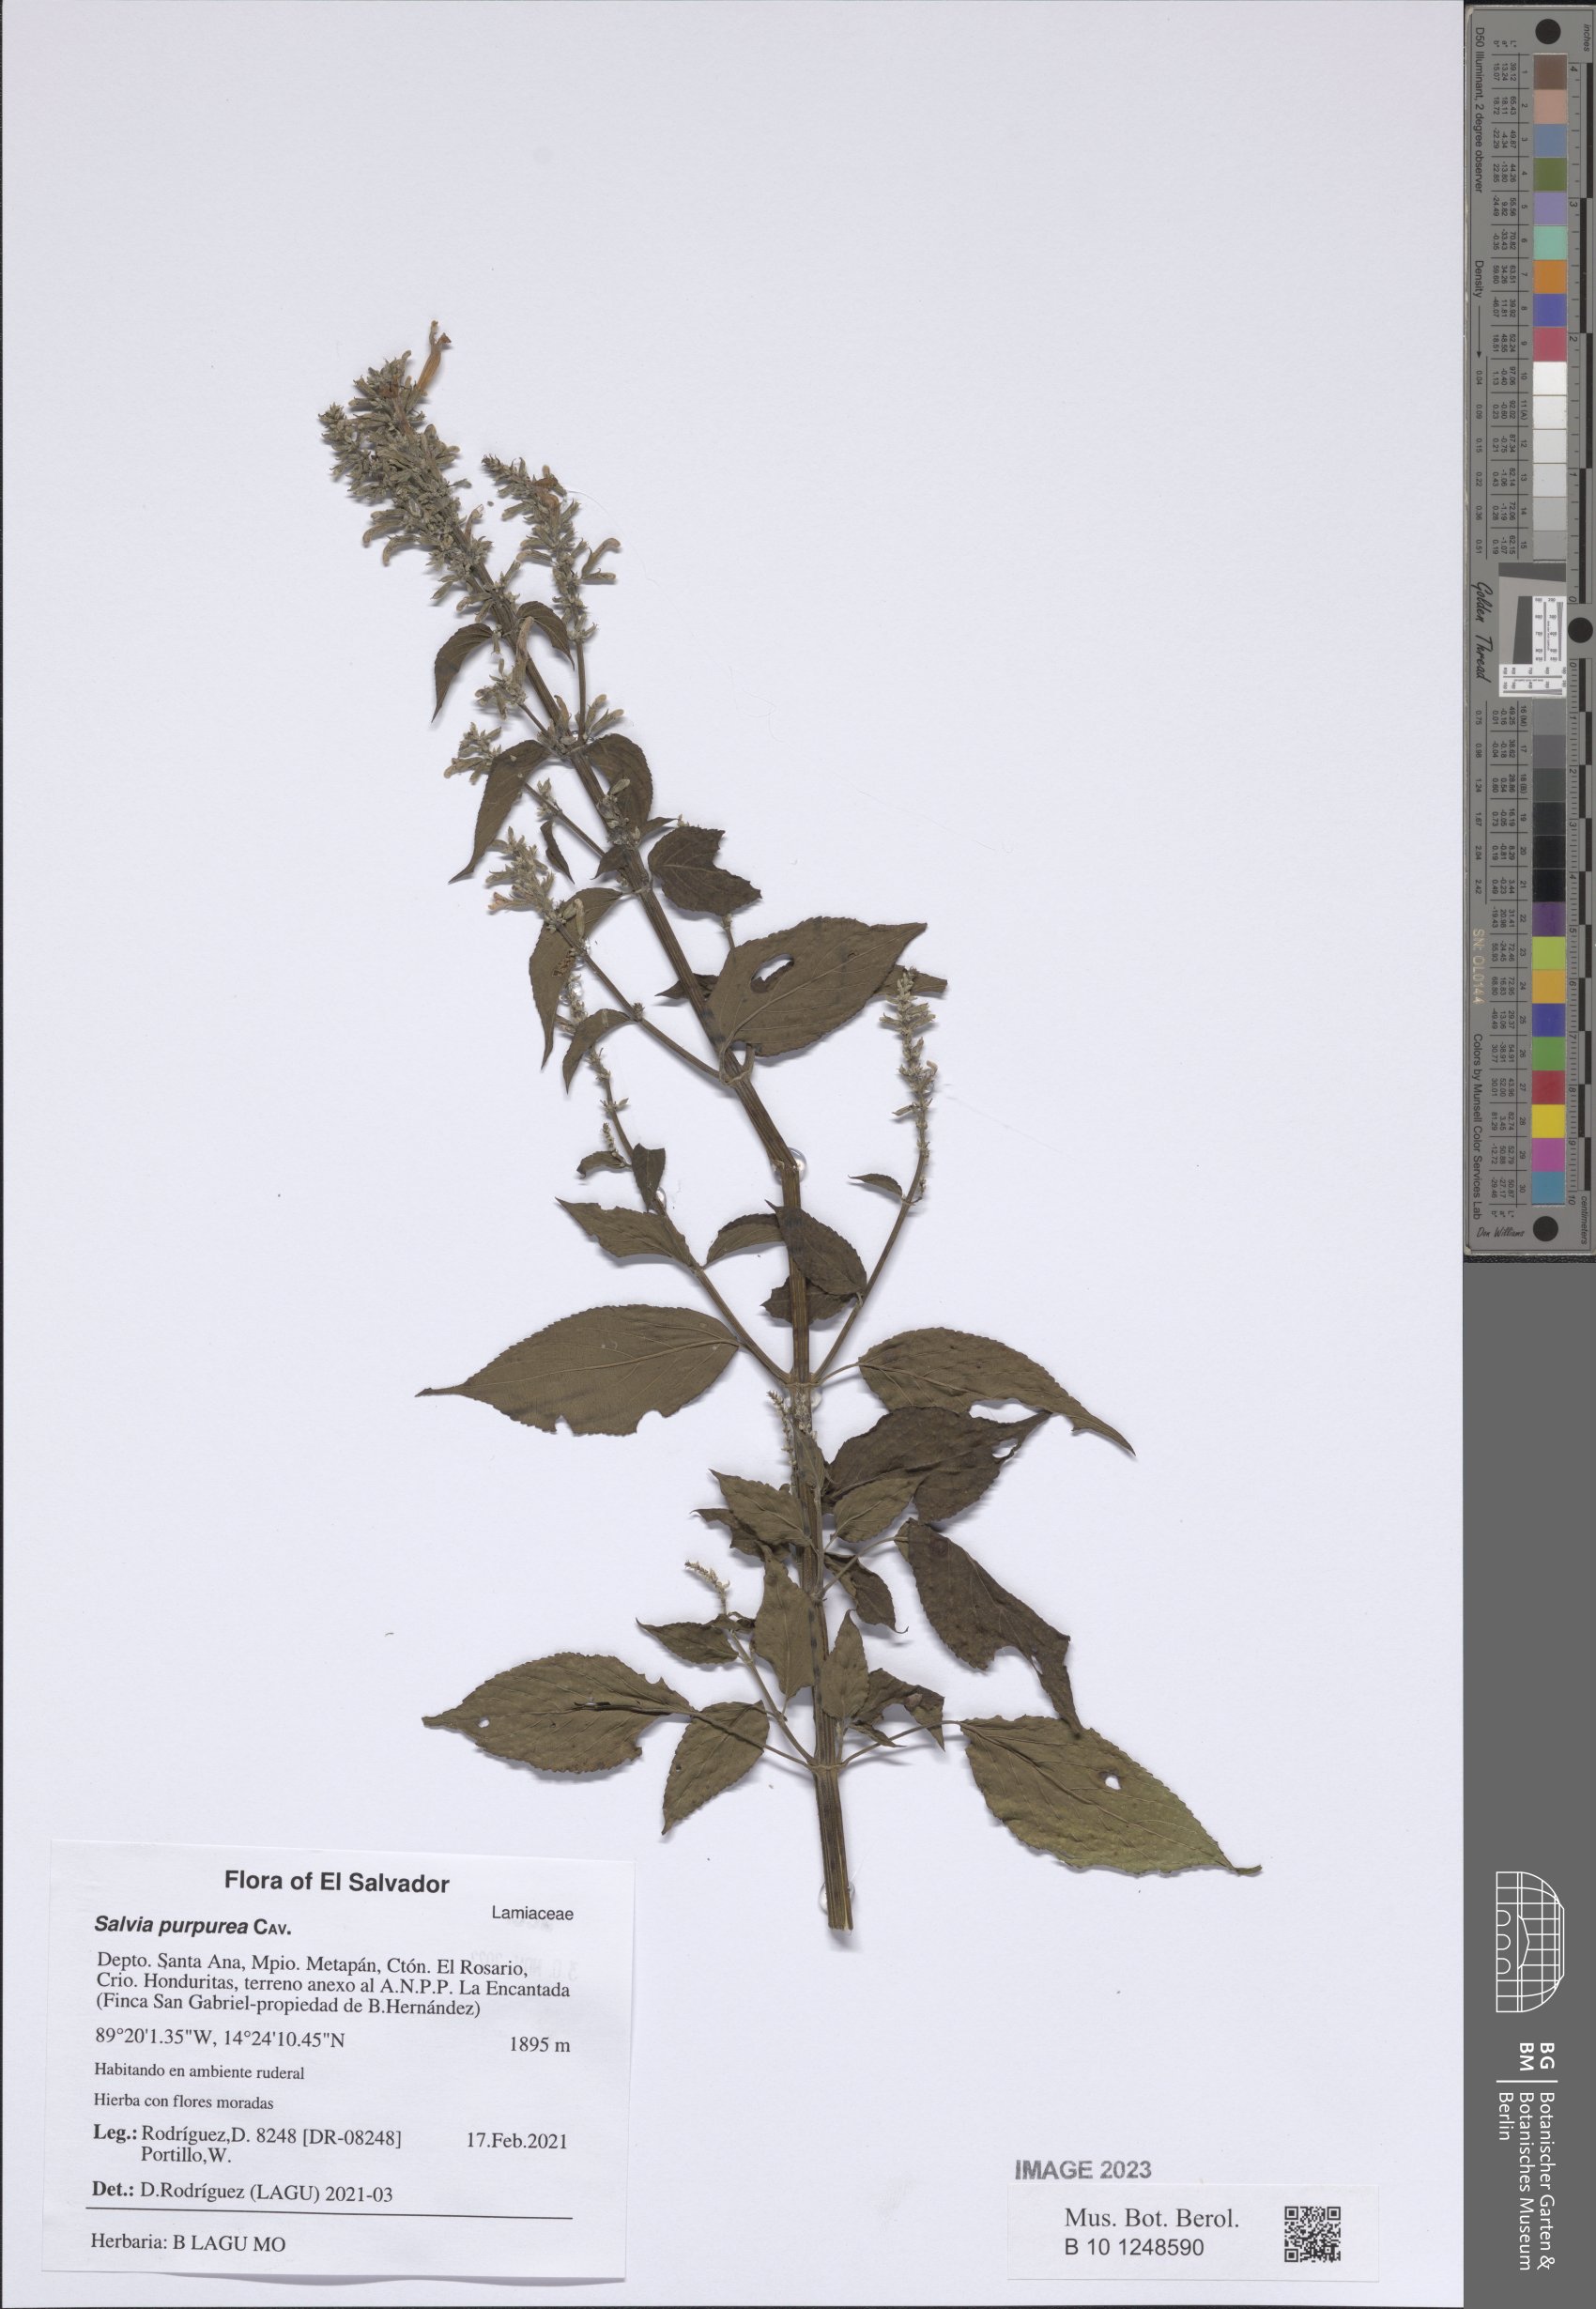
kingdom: Plantae
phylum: Tracheophyta
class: Magnoliopsida
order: Lamiales
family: Lamiaceae
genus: Salvia
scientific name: Salvia purpurea
